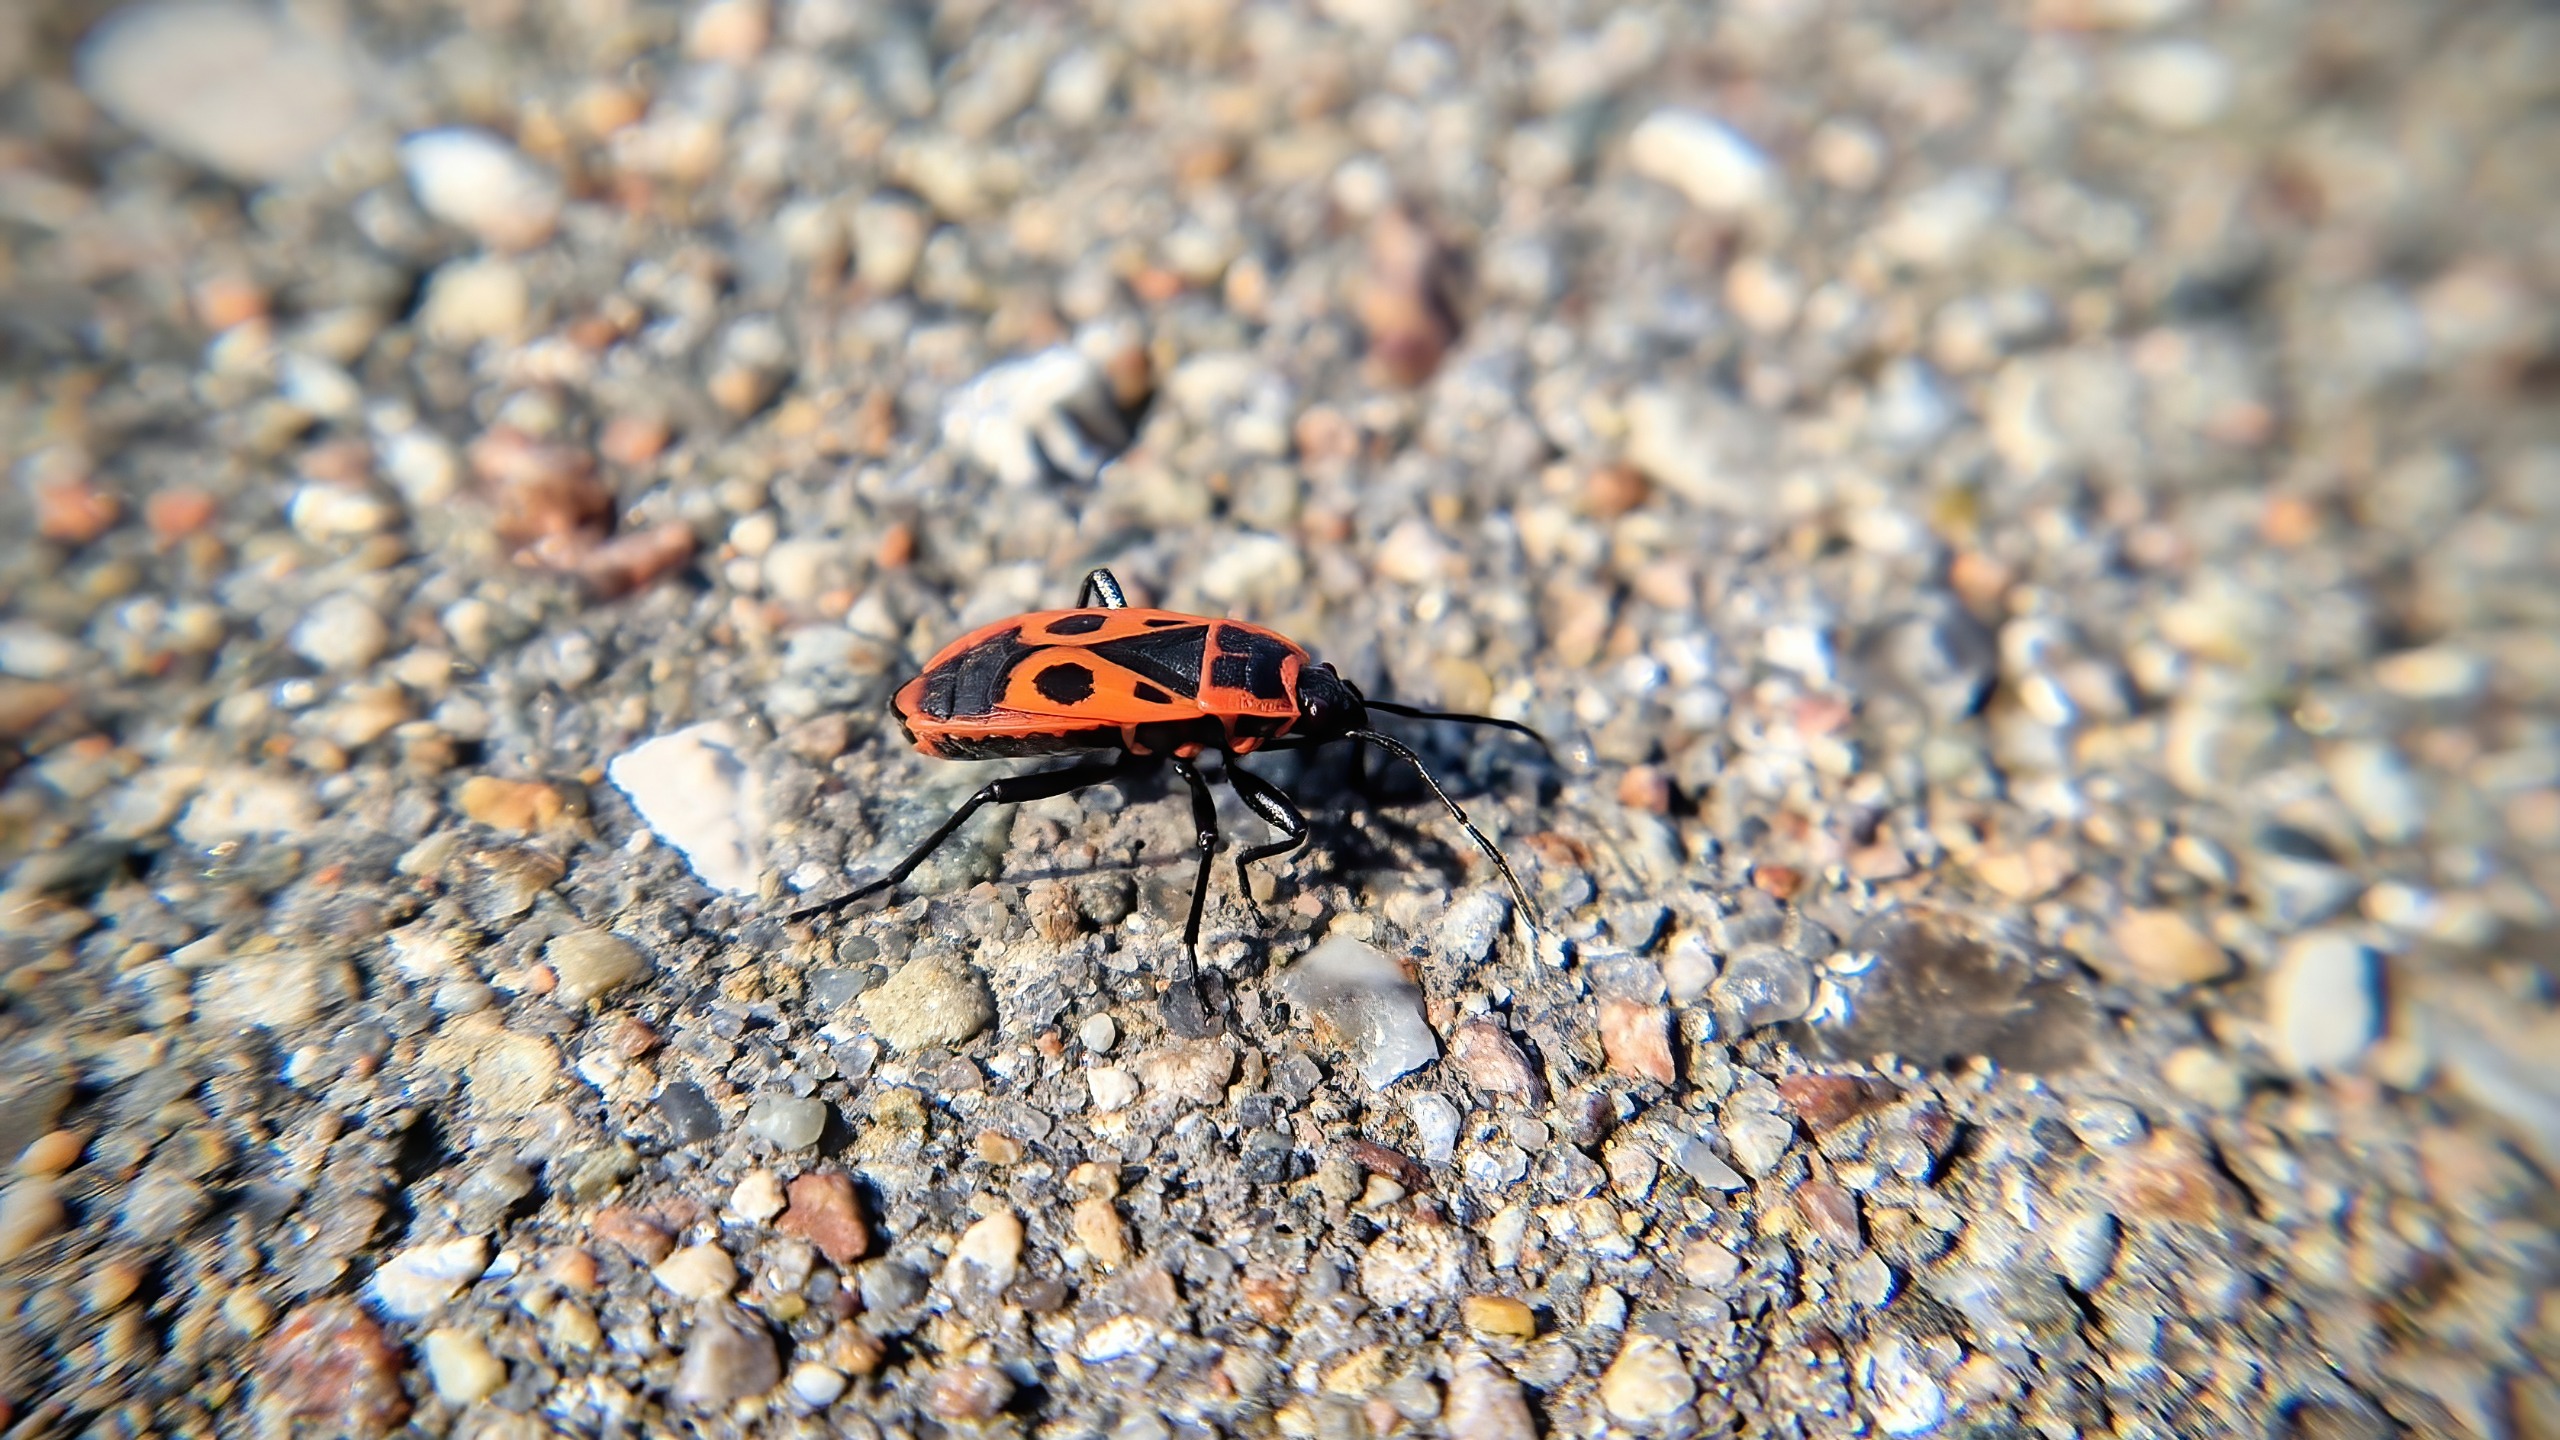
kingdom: Animalia
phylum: Arthropoda
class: Insecta
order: Hemiptera
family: Pyrrhocoridae
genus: Pyrrhocoris
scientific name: Pyrrhocoris apterus
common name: Ildtæge
